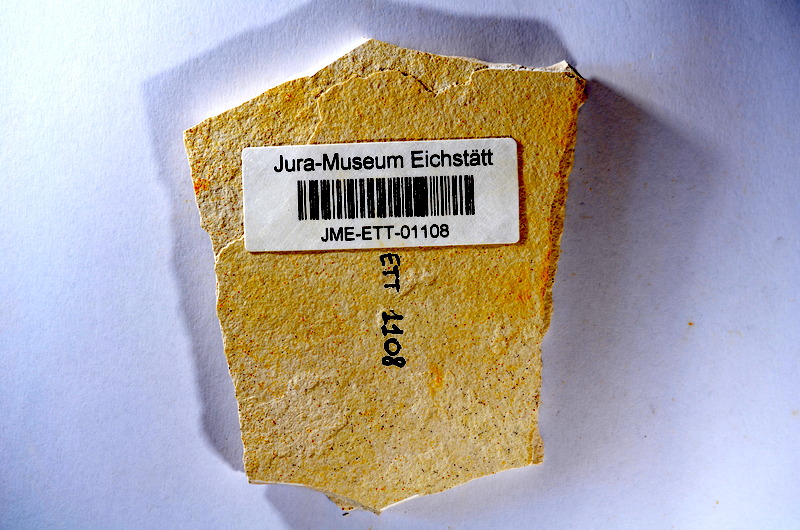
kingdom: Animalia
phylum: Chordata
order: Salmoniformes
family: Orthogonikleithridae
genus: Orthogonikleithrus
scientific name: Orthogonikleithrus hoelli
